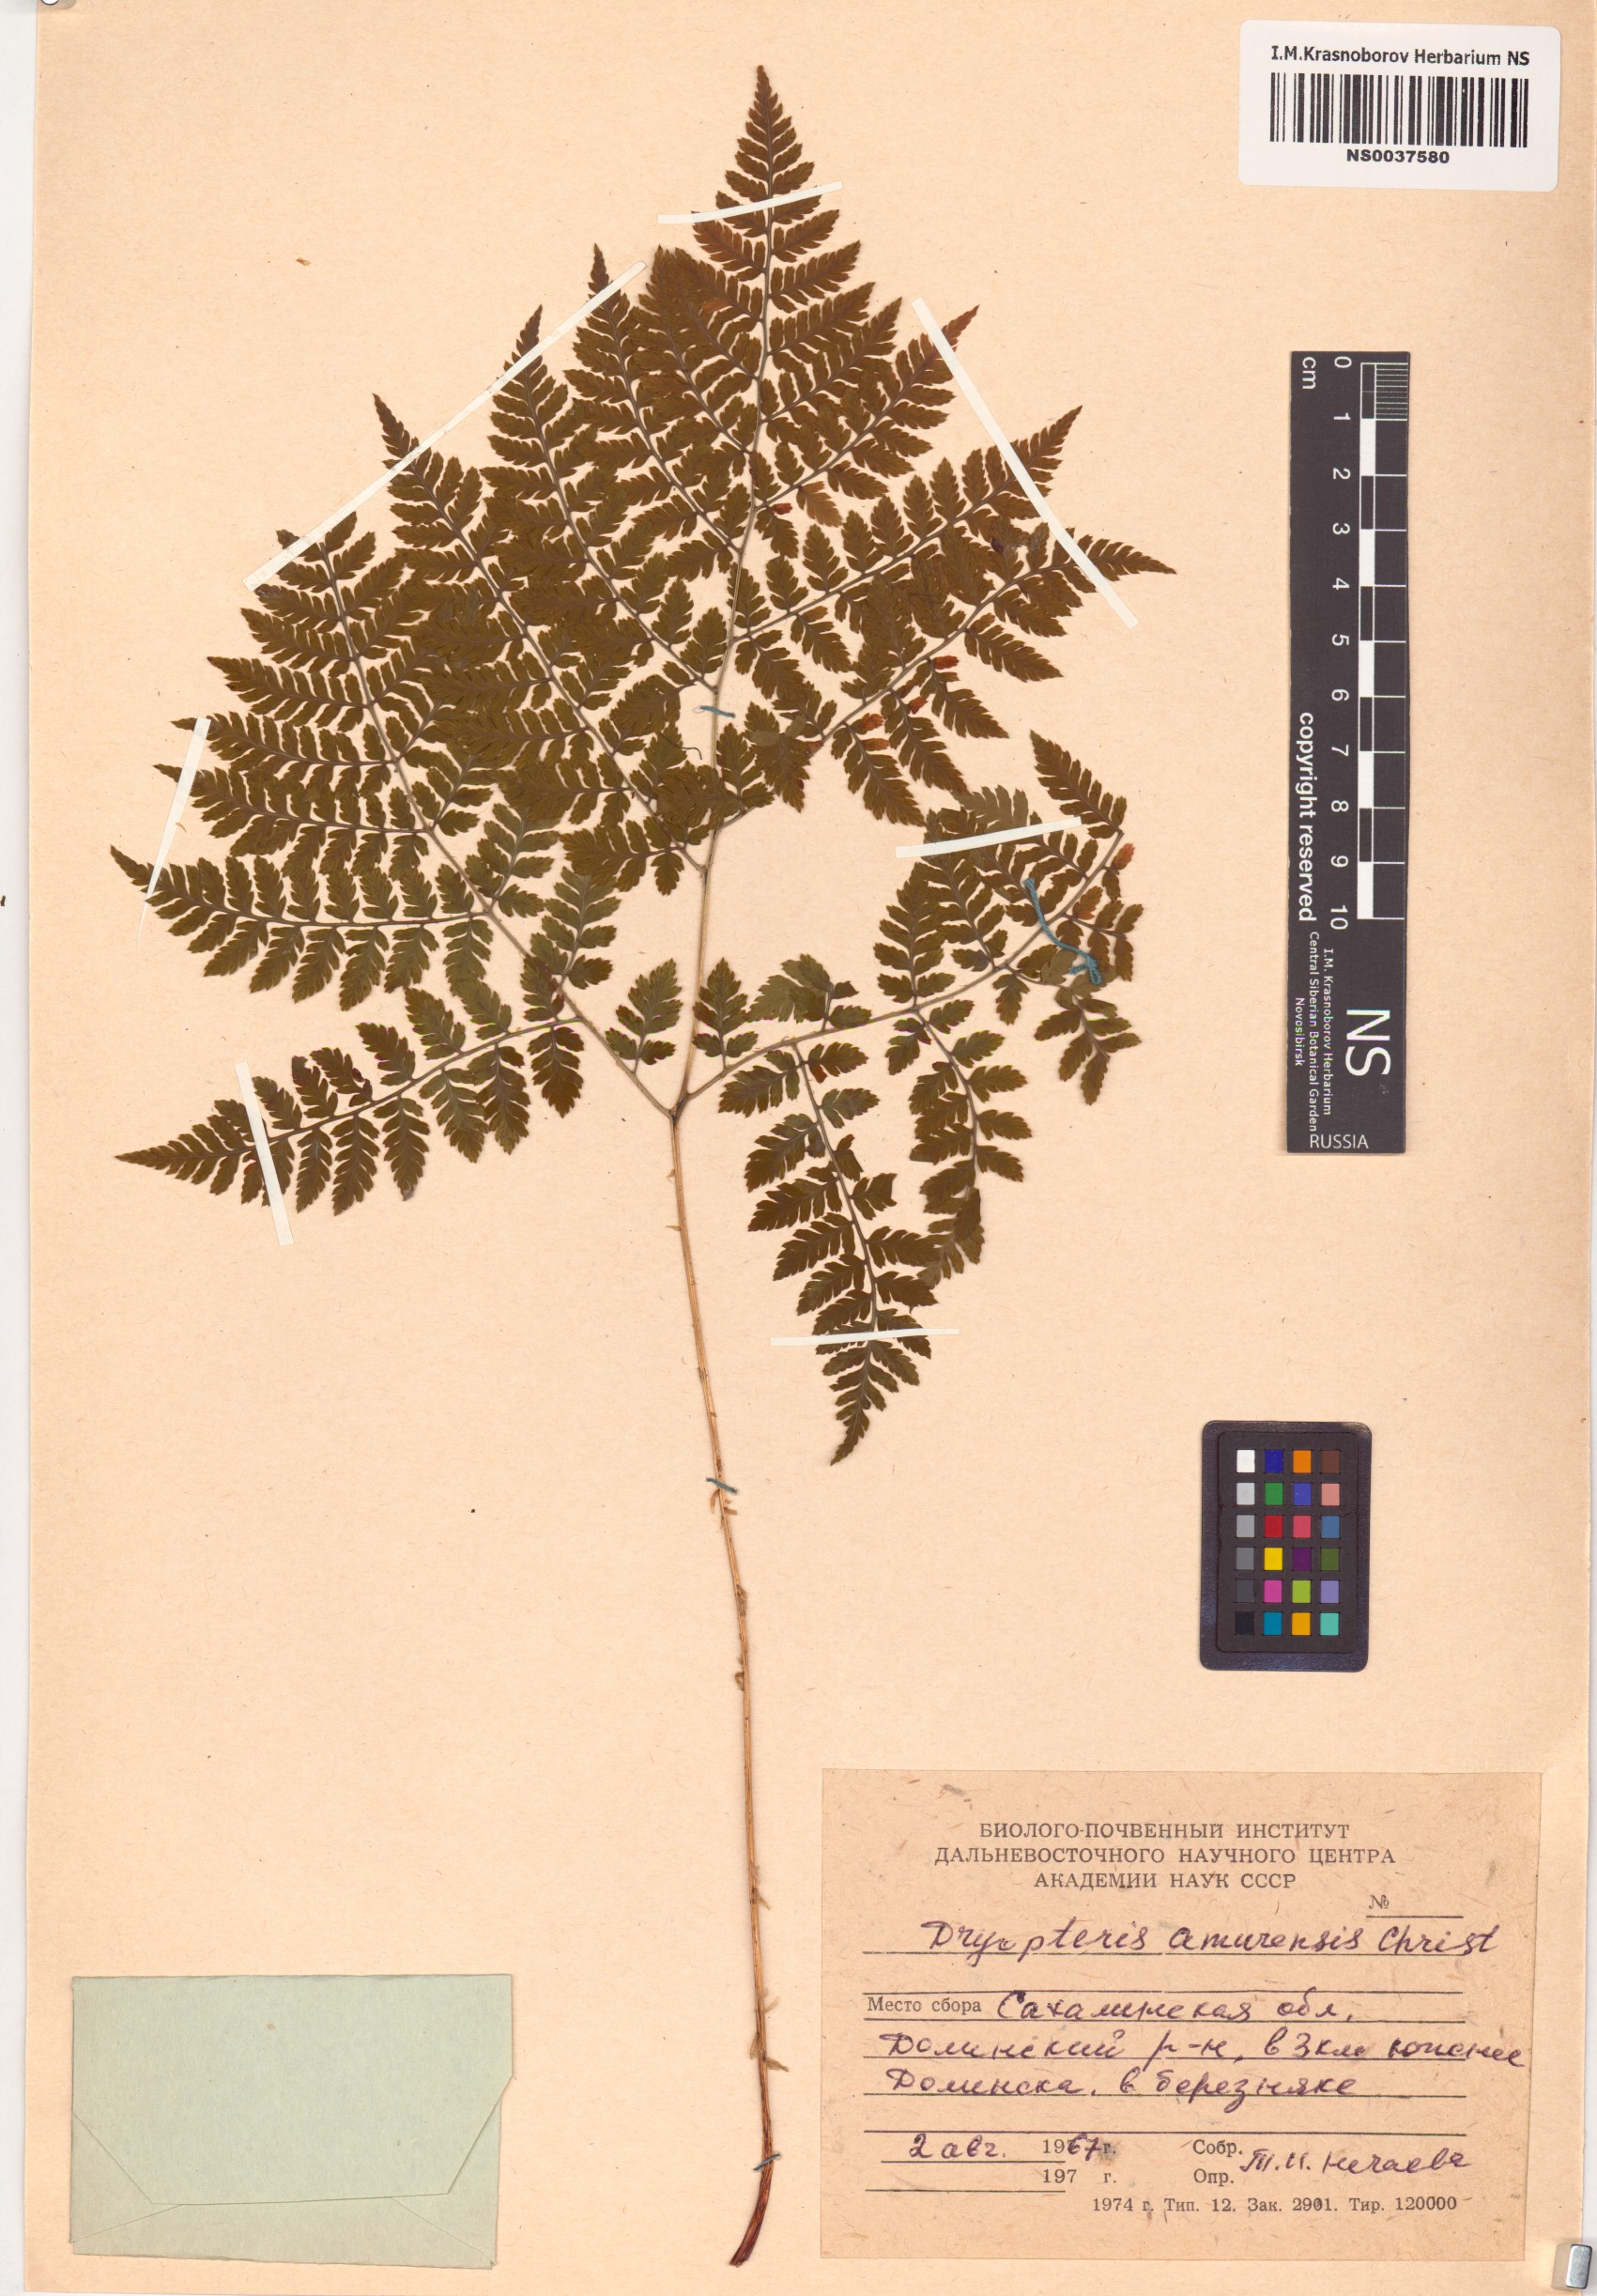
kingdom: Plantae
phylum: Tracheophyta
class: Polypodiopsida
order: Polypodiales
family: Dryopteridaceae
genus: Dryopteris
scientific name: Dryopteris amurensis
